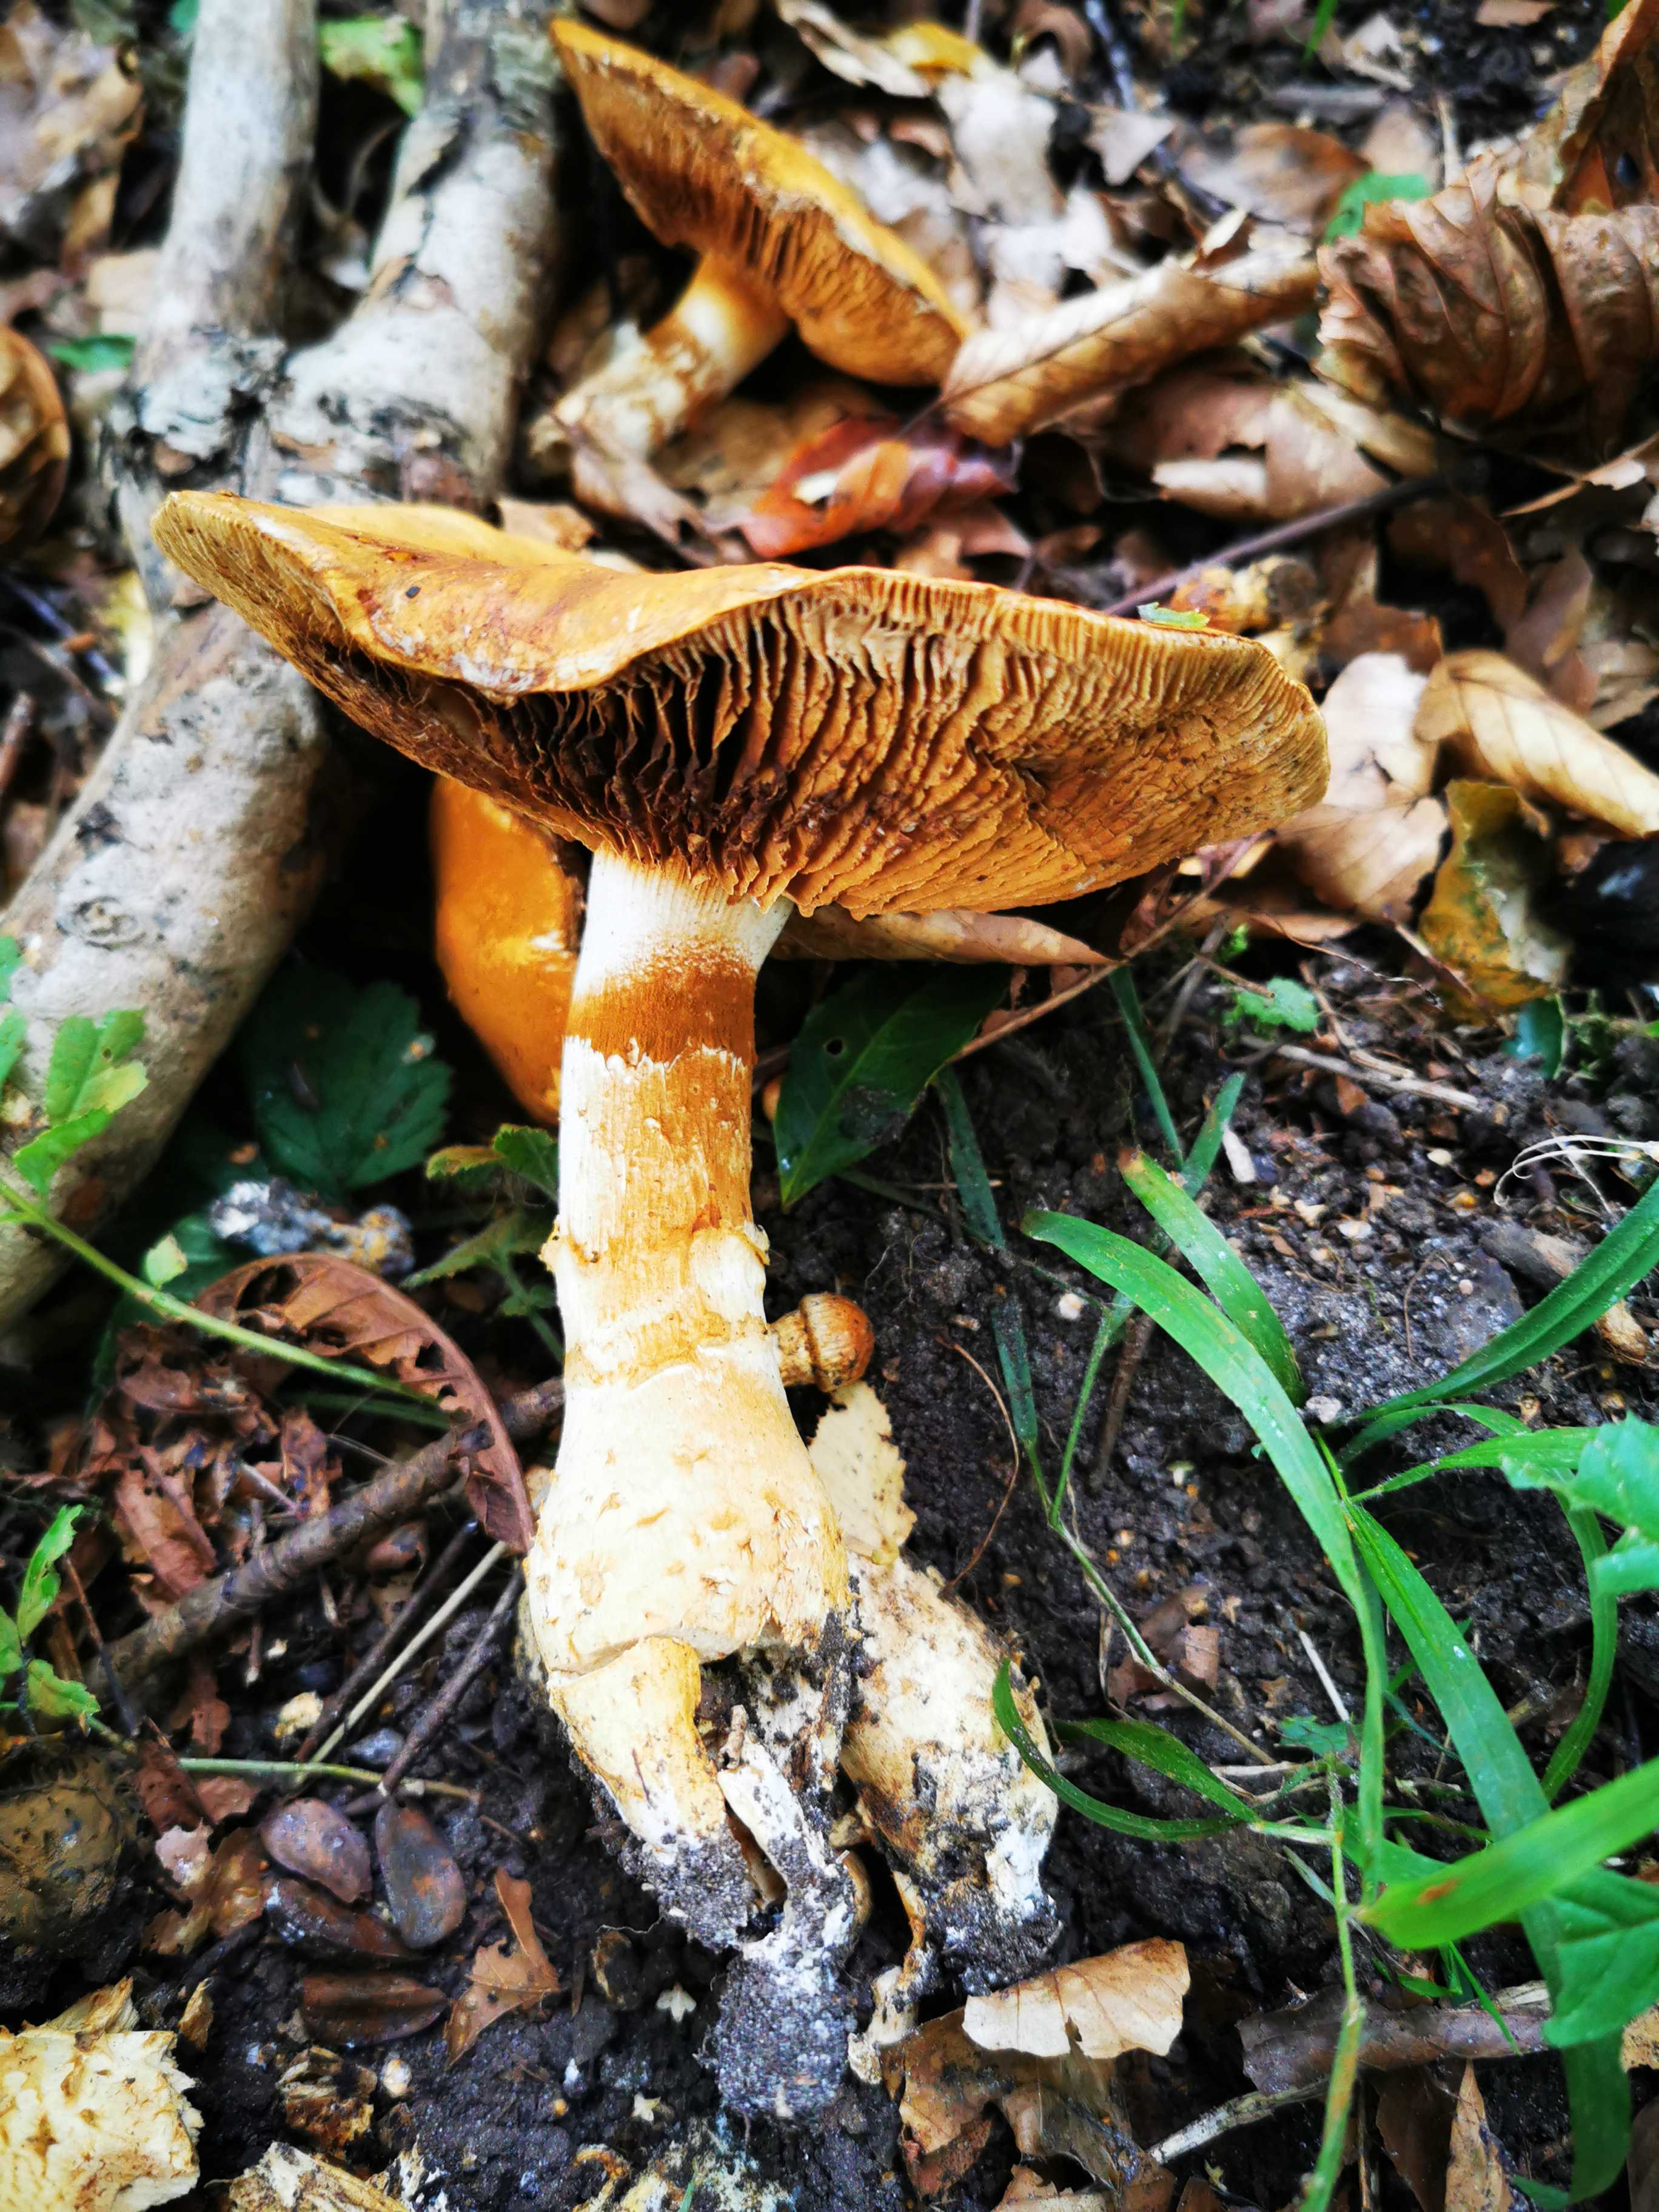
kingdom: Fungi
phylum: Basidiomycota
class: Agaricomycetes
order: Agaricales
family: Cortinariaceae
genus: Phlegmacium
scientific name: Phlegmacium triumphans
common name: gulbæltet slørhat
